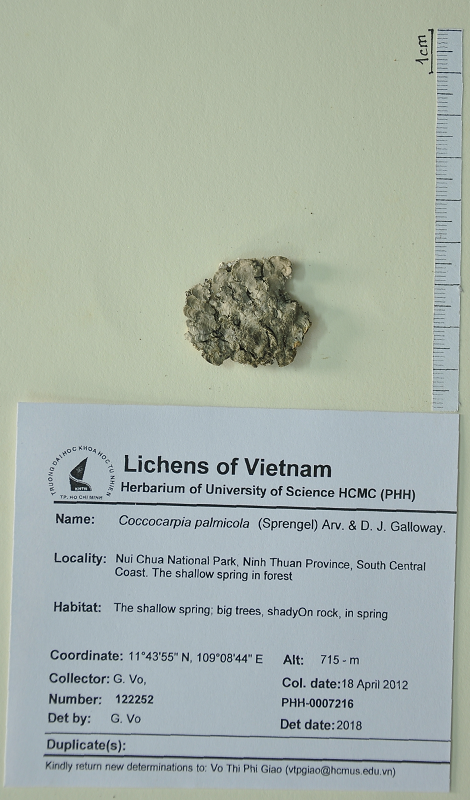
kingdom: Fungi
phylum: Ascomycota
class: Lecanoromycetes
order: Peltigerales
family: Coccocarpiaceae
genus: Coccocarpia
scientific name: Coccocarpia palmicola
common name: Salted shell lichen
